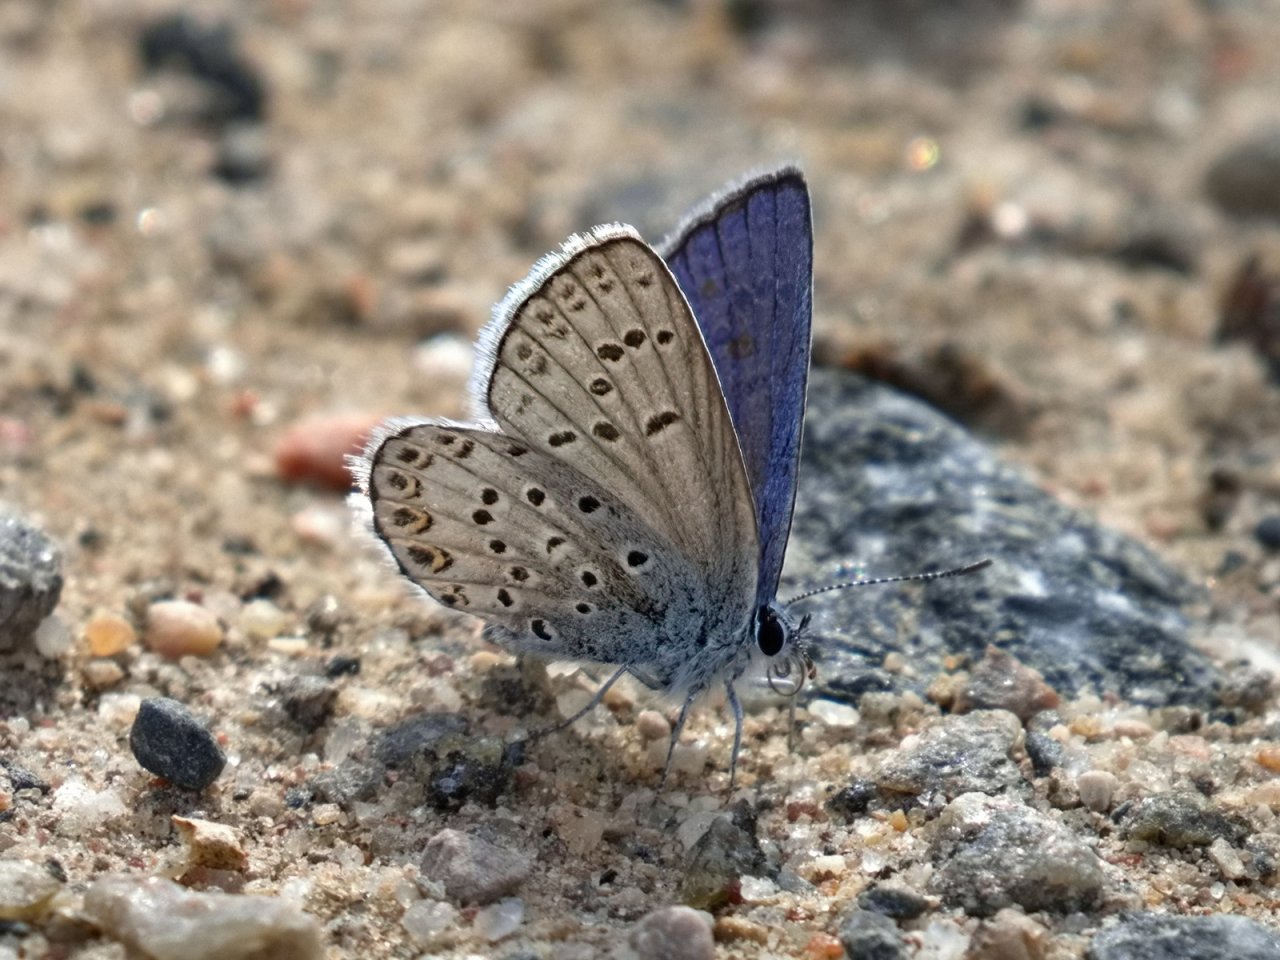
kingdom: Animalia
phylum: Arthropoda
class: Insecta
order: Lepidoptera
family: Lycaenidae
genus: Lycaeides
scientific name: Lycaeides idas
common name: Northern Blue
